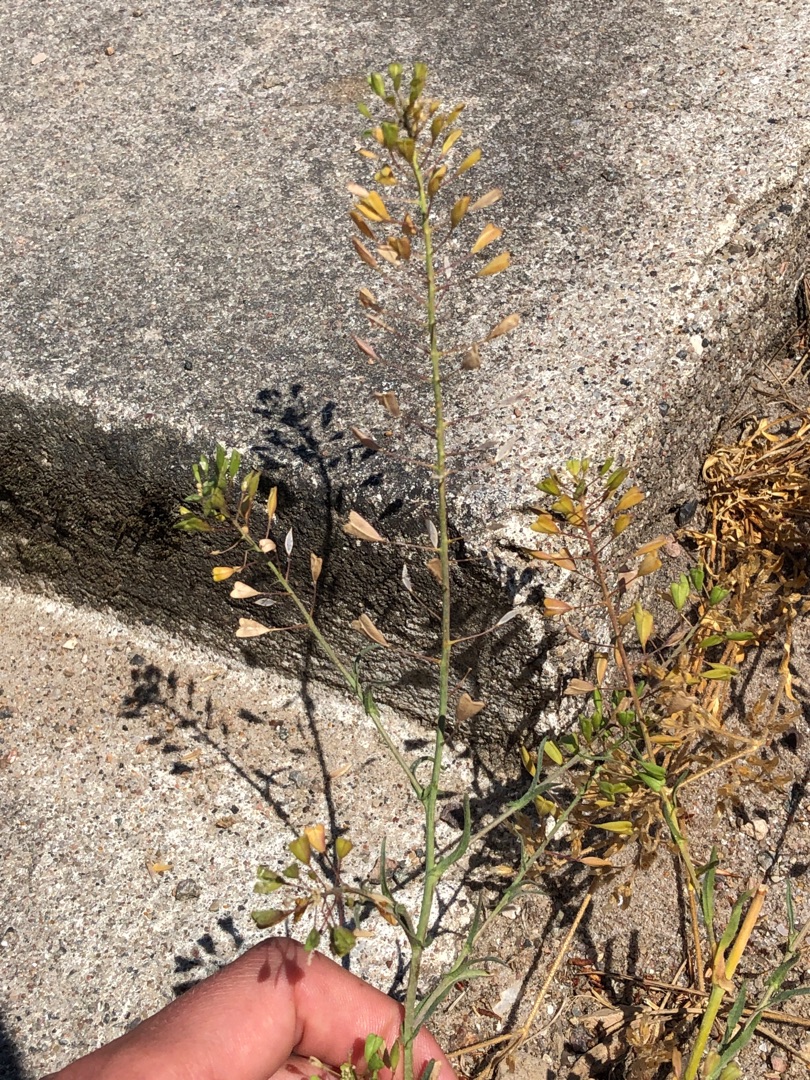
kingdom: Plantae
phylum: Tracheophyta
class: Magnoliopsida
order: Brassicales
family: Brassicaceae
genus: Capsella
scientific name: Capsella bursa-pastoris
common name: Hyrdetaske
